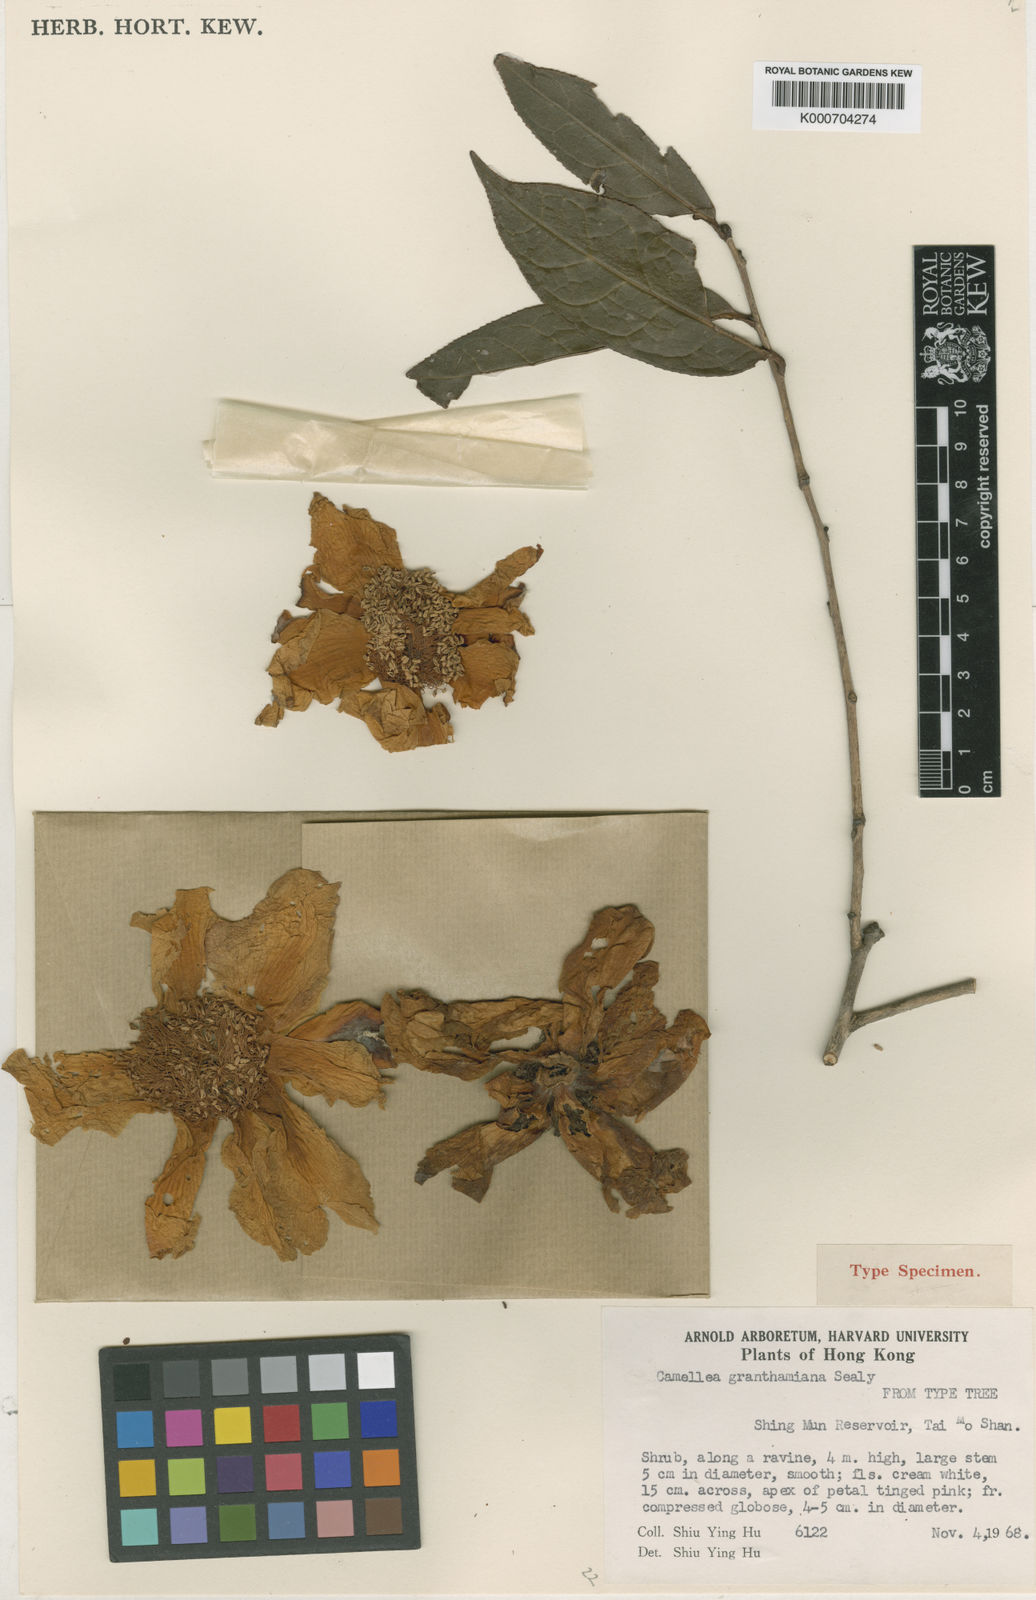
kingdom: Plantae
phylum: Tracheophyta
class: Magnoliopsida
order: Ericales
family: Theaceae
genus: Camellia
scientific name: Camellia granthamiana
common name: Grantham's camellia
